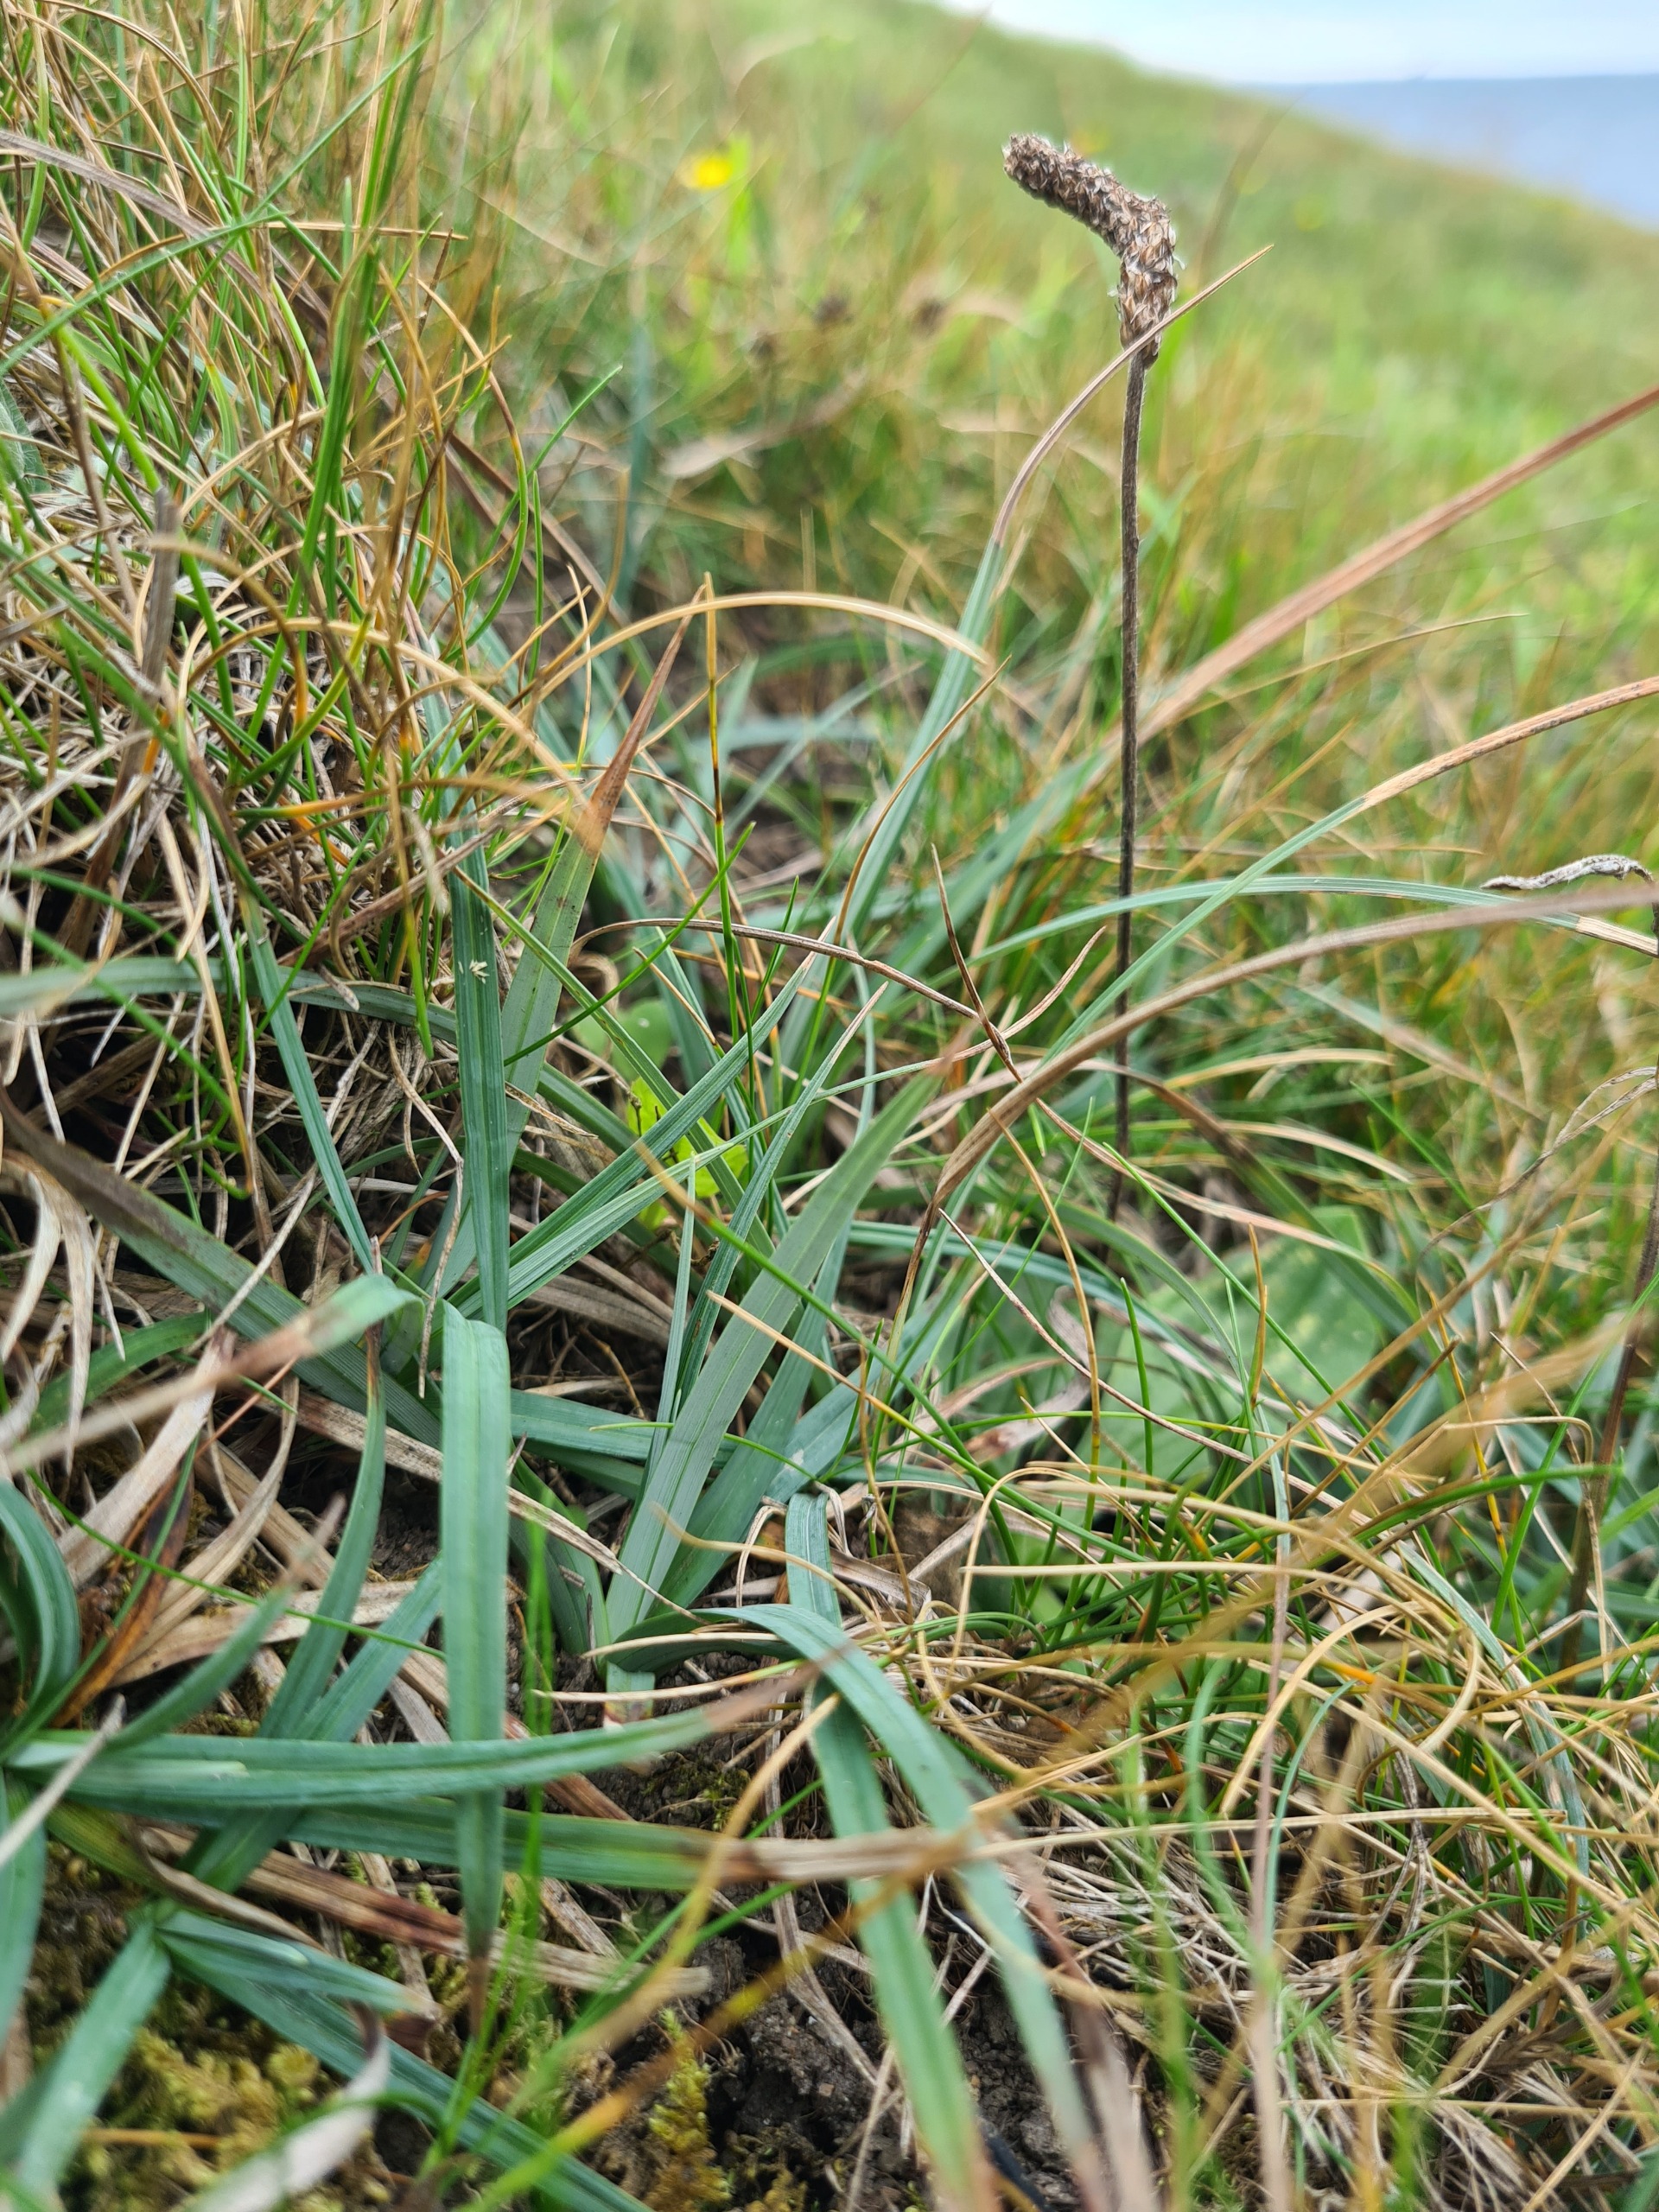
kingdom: Plantae
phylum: Tracheophyta
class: Liliopsida
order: Poales
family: Cyperaceae
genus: Carex
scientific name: Carex flacca
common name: Blågrøn star
